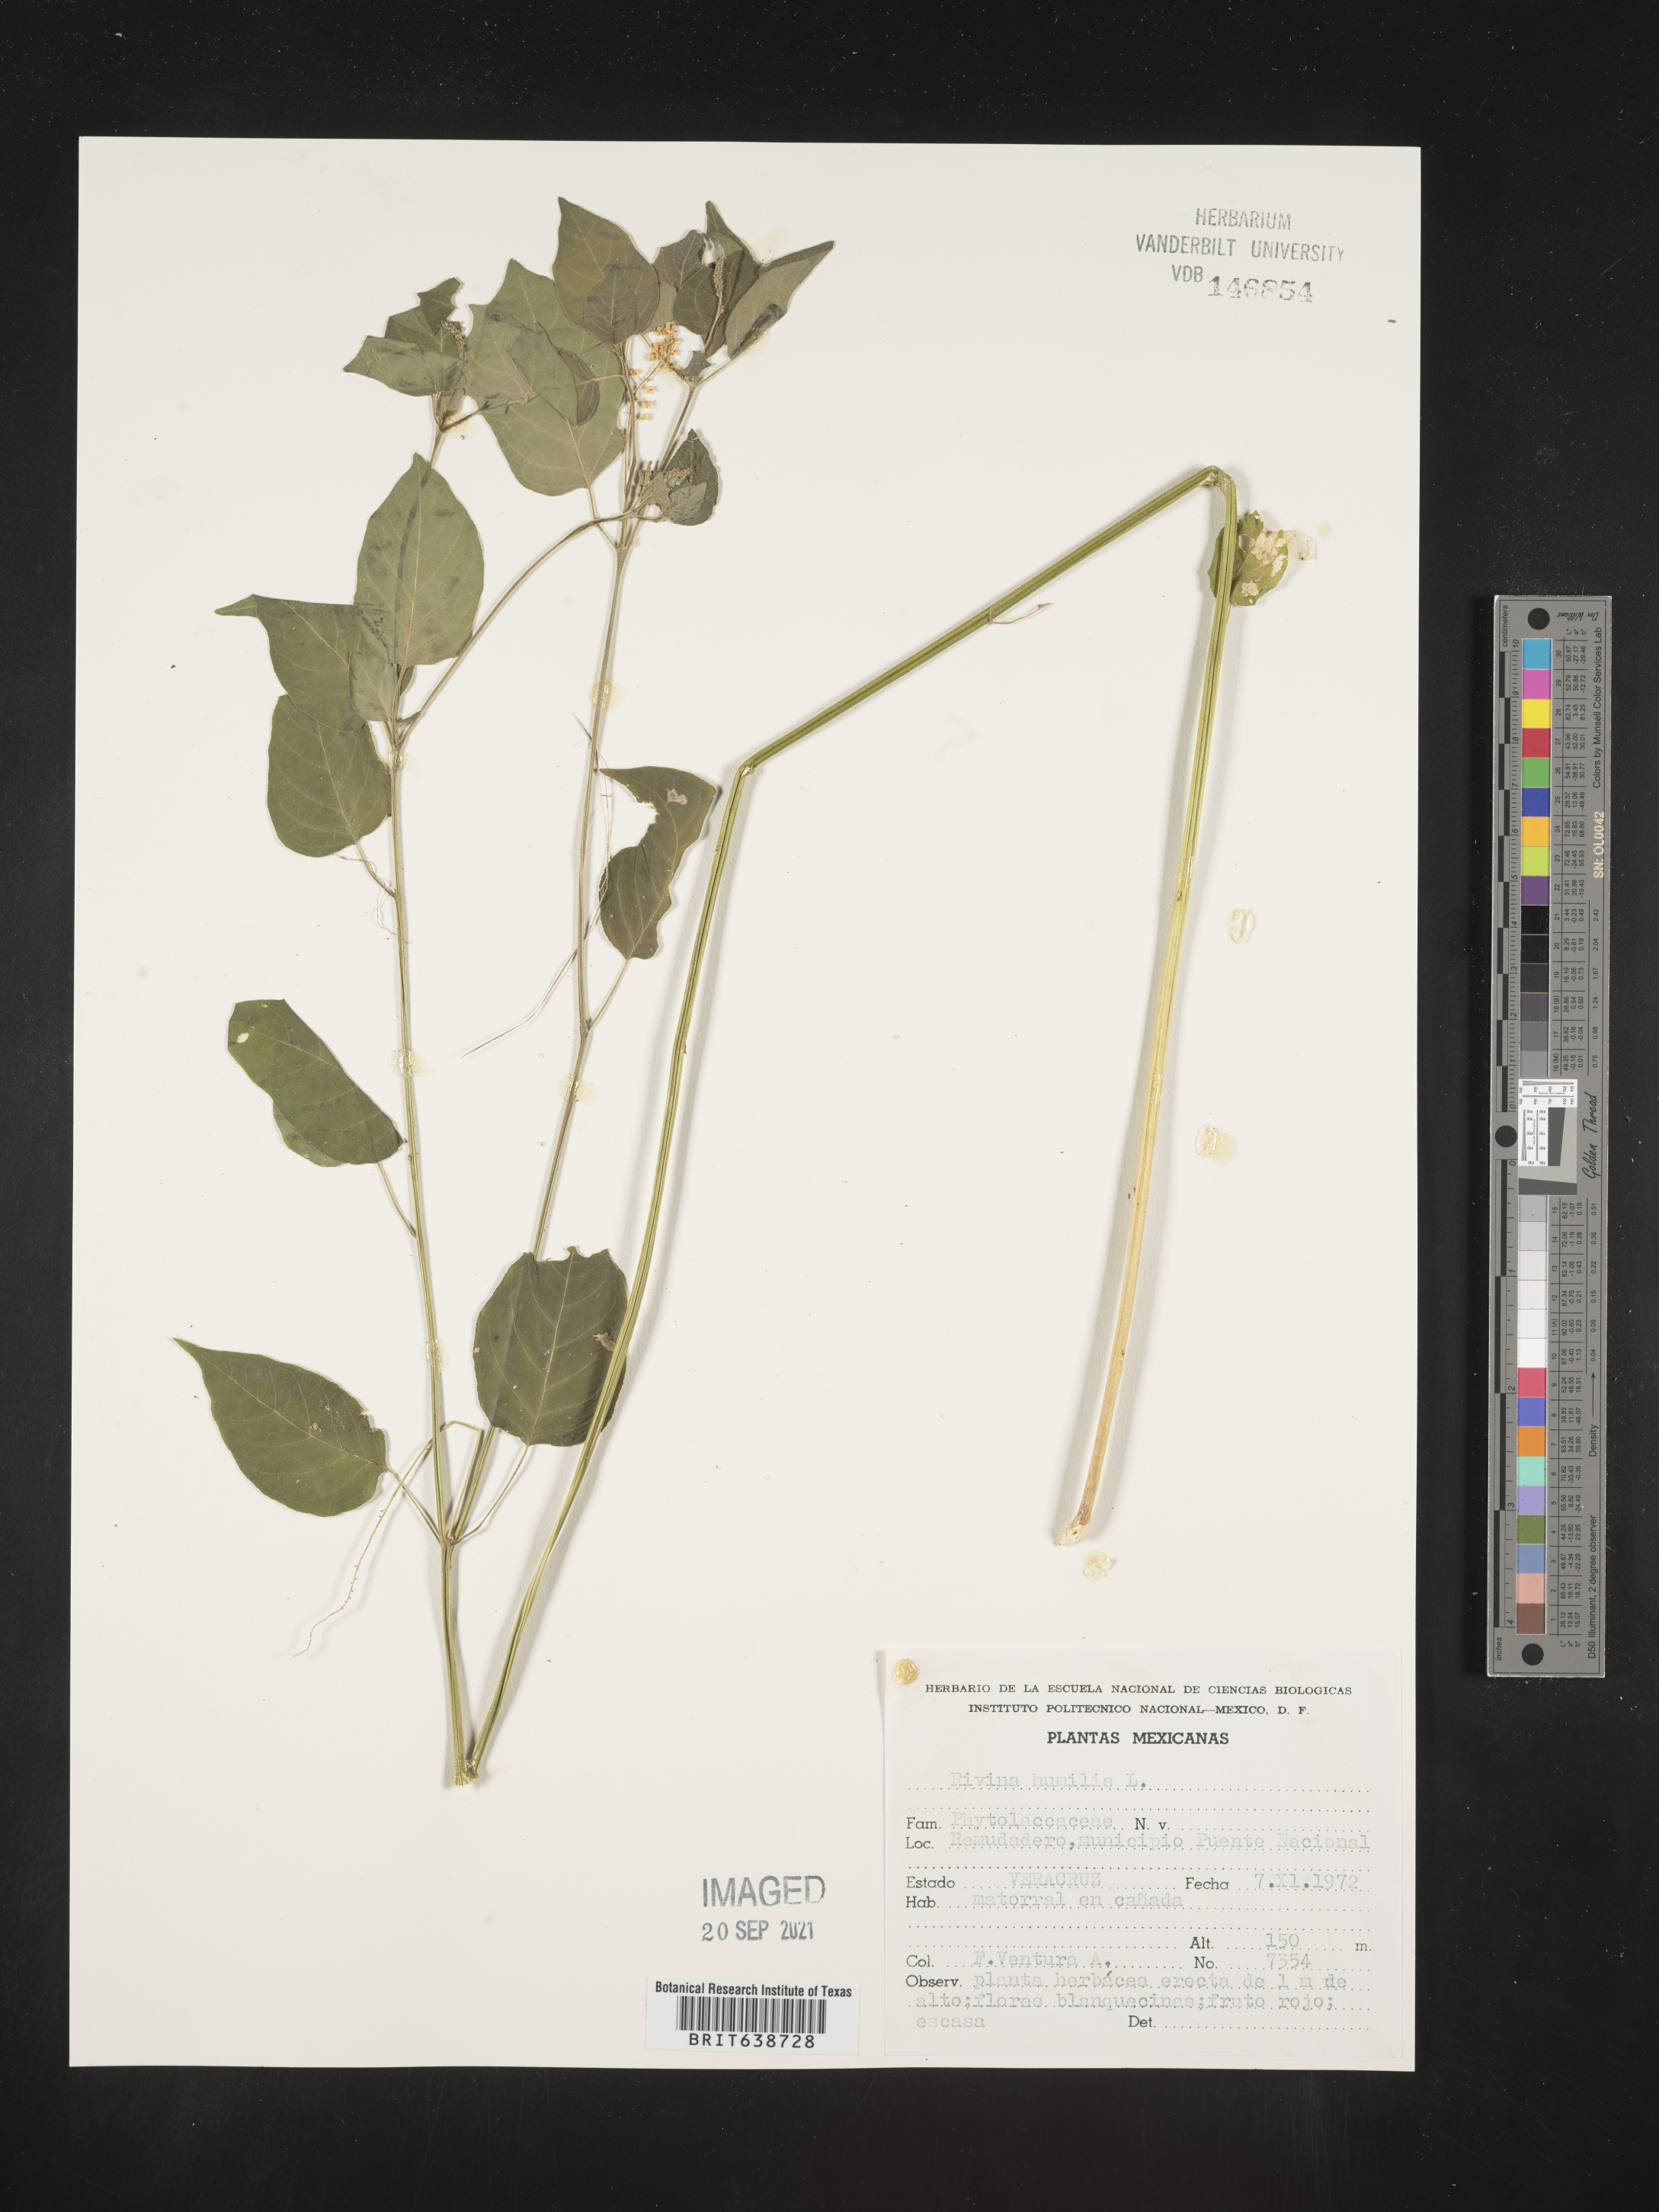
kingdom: Plantae
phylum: Tracheophyta
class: Magnoliopsida
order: Caryophyllales
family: Phytolaccaceae
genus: Rivina
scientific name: Rivina
